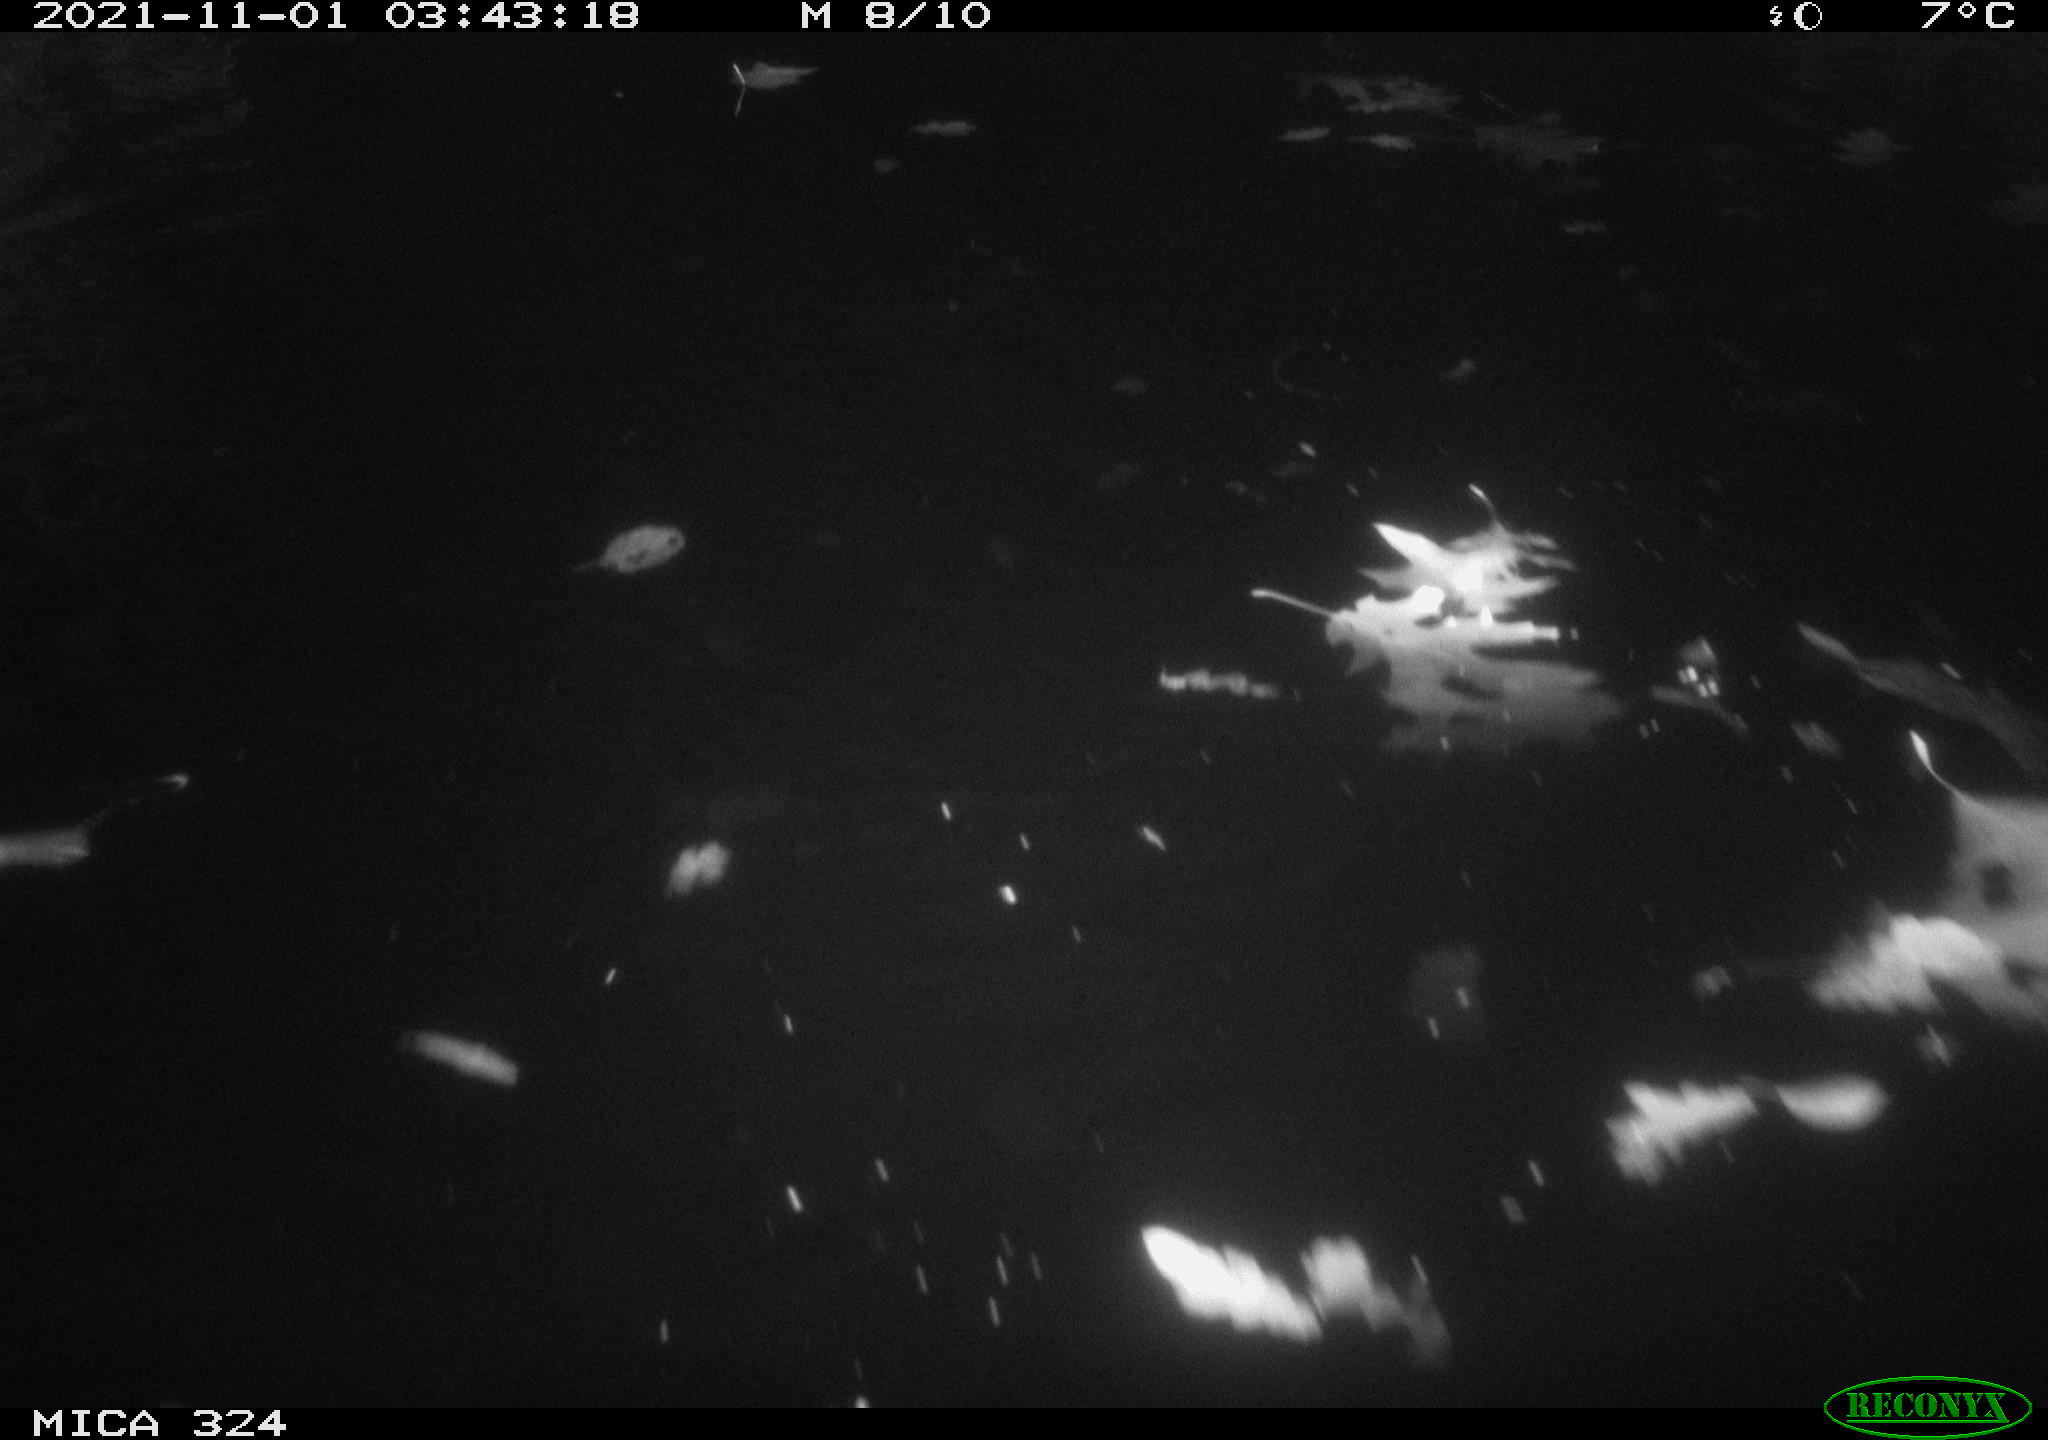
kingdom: Animalia
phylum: Chordata
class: Mammalia
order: Rodentia
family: Cricetidae
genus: Ondatra
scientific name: Ondatra zibethicus
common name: Muskrat
